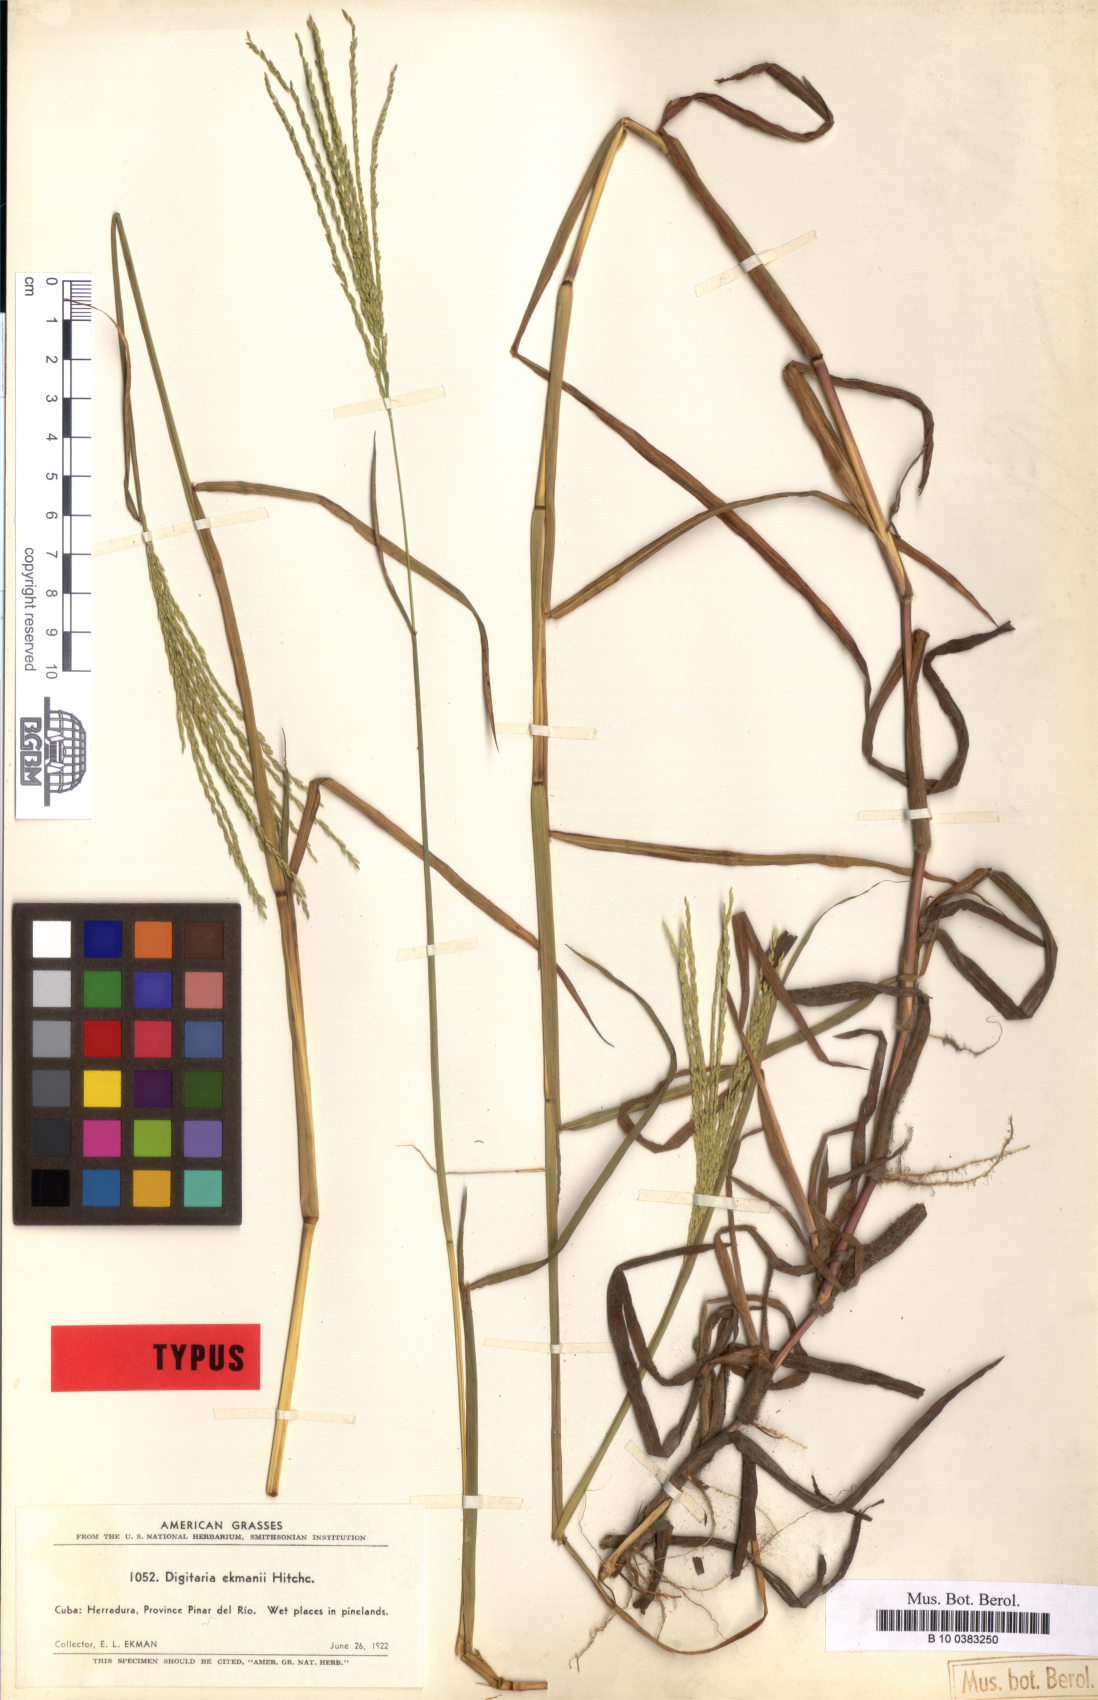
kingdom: Plantae
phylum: Tracheophyta
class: Liliopsida
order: Poales
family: Poaceae
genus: Digitaria
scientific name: Digitaria ekmanii
